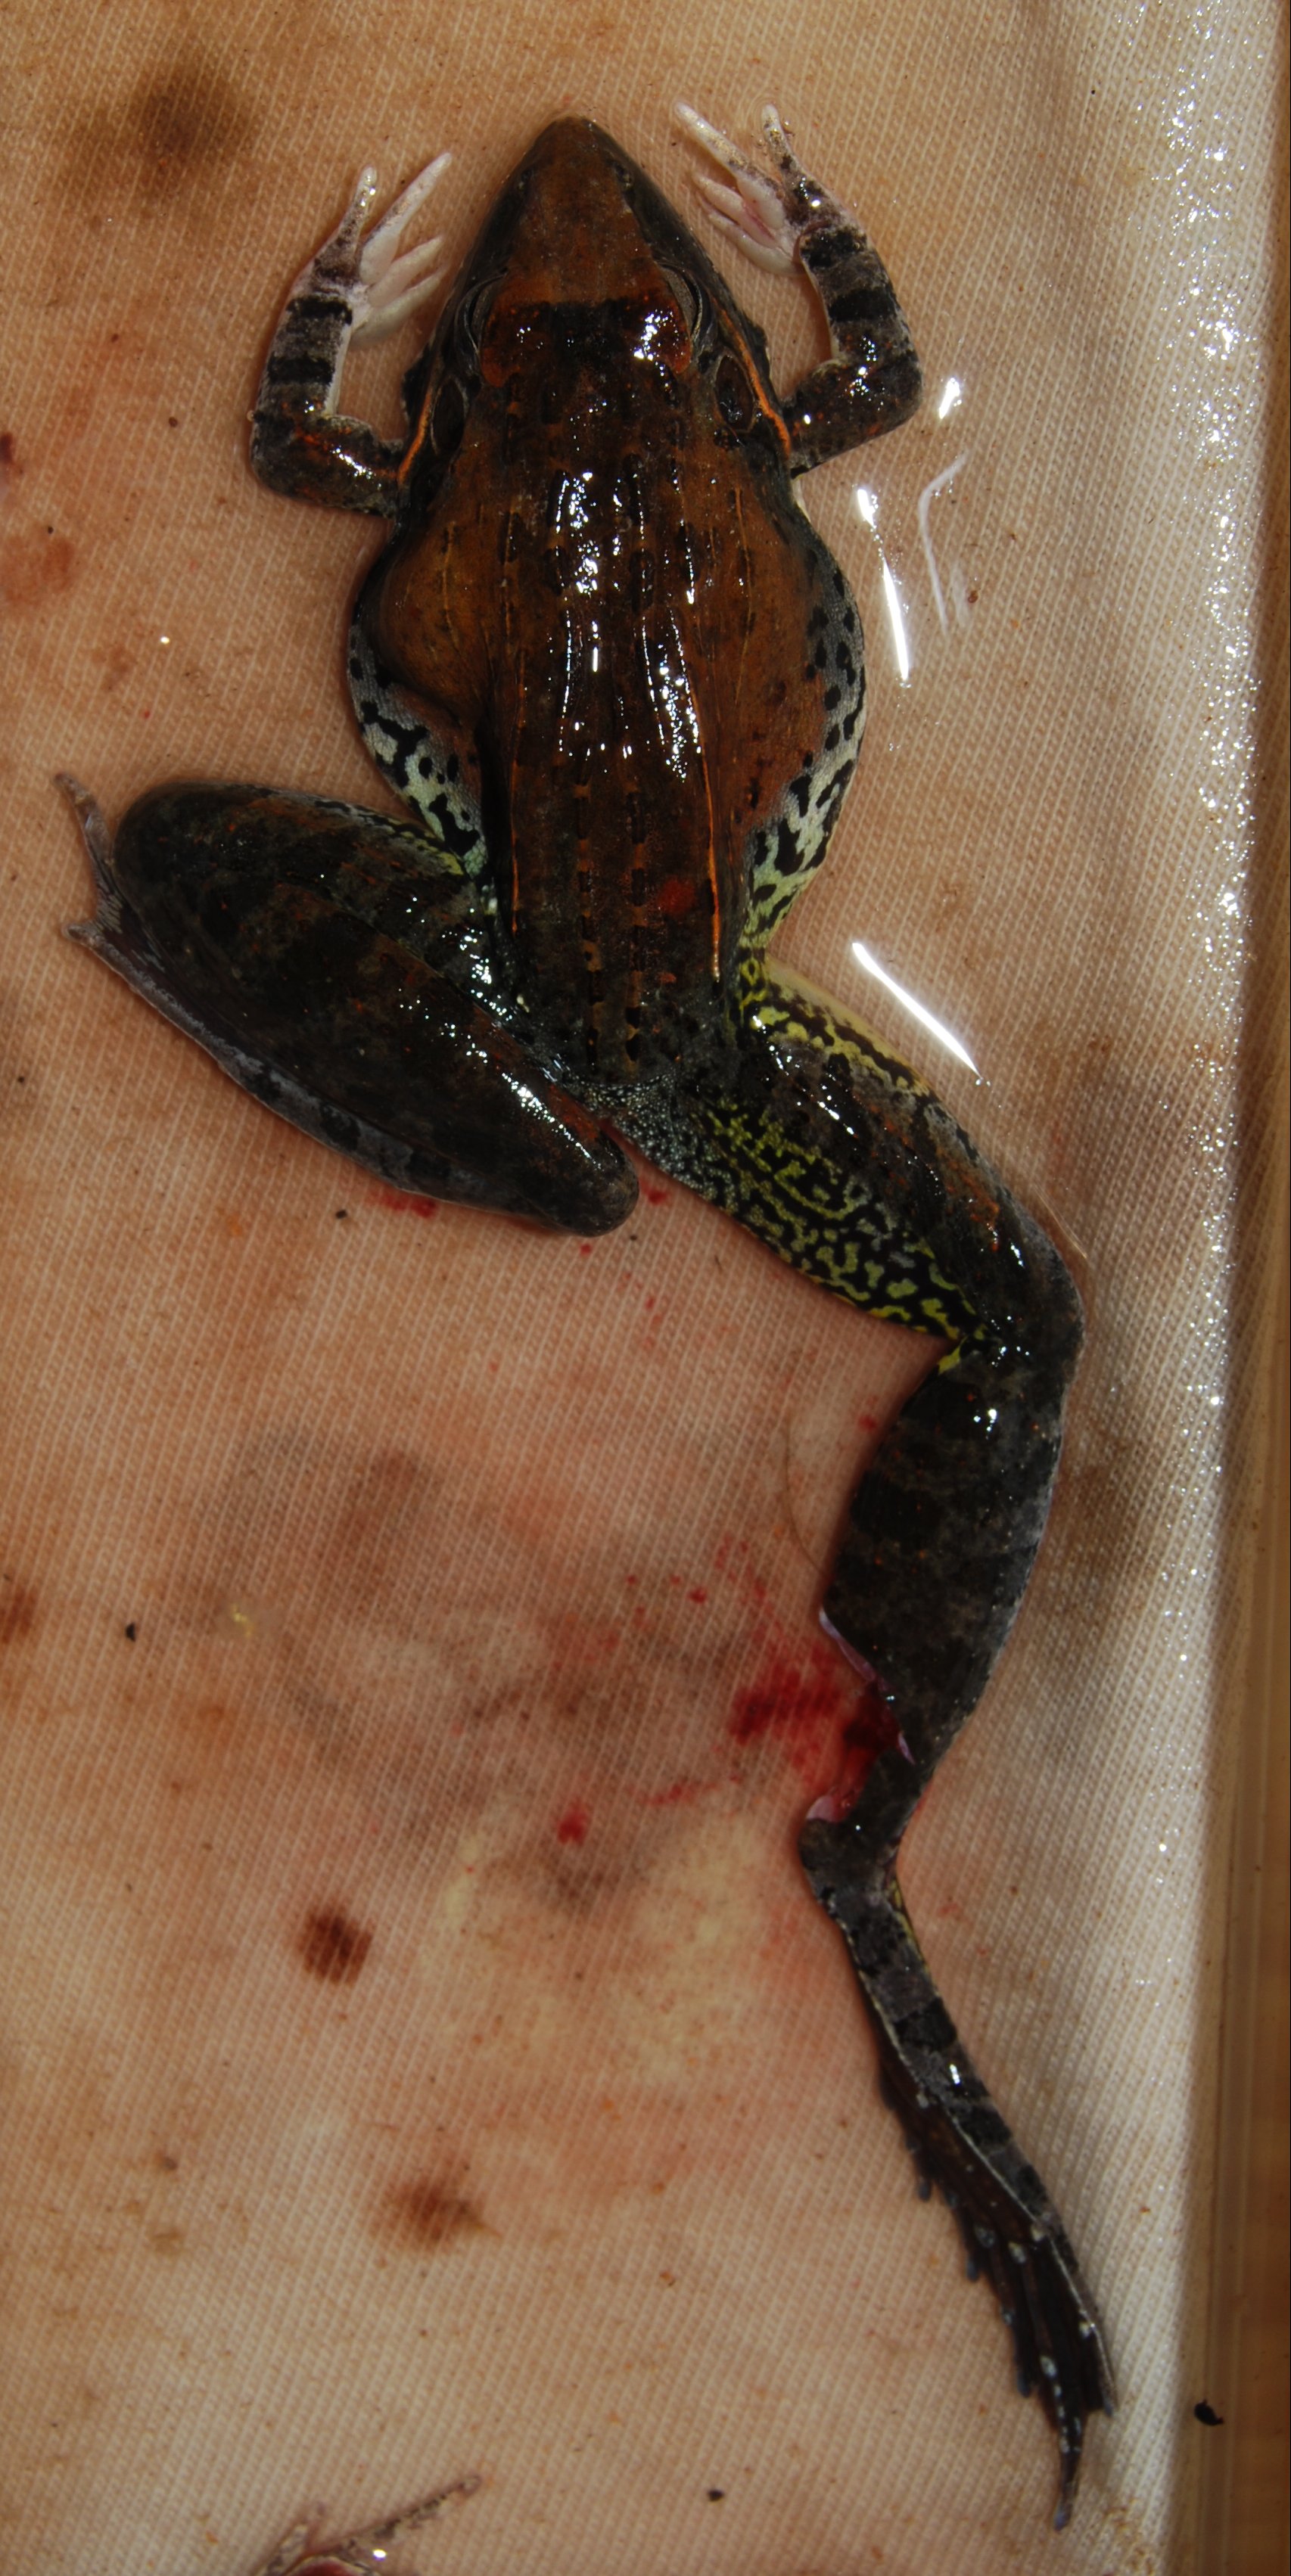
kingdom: Animalia
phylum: Chordata
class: Amphibia
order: Anura
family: Ptychadenidae
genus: Ptychadena
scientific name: Ptychadena anchietae
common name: Anchieta's ridged frog
